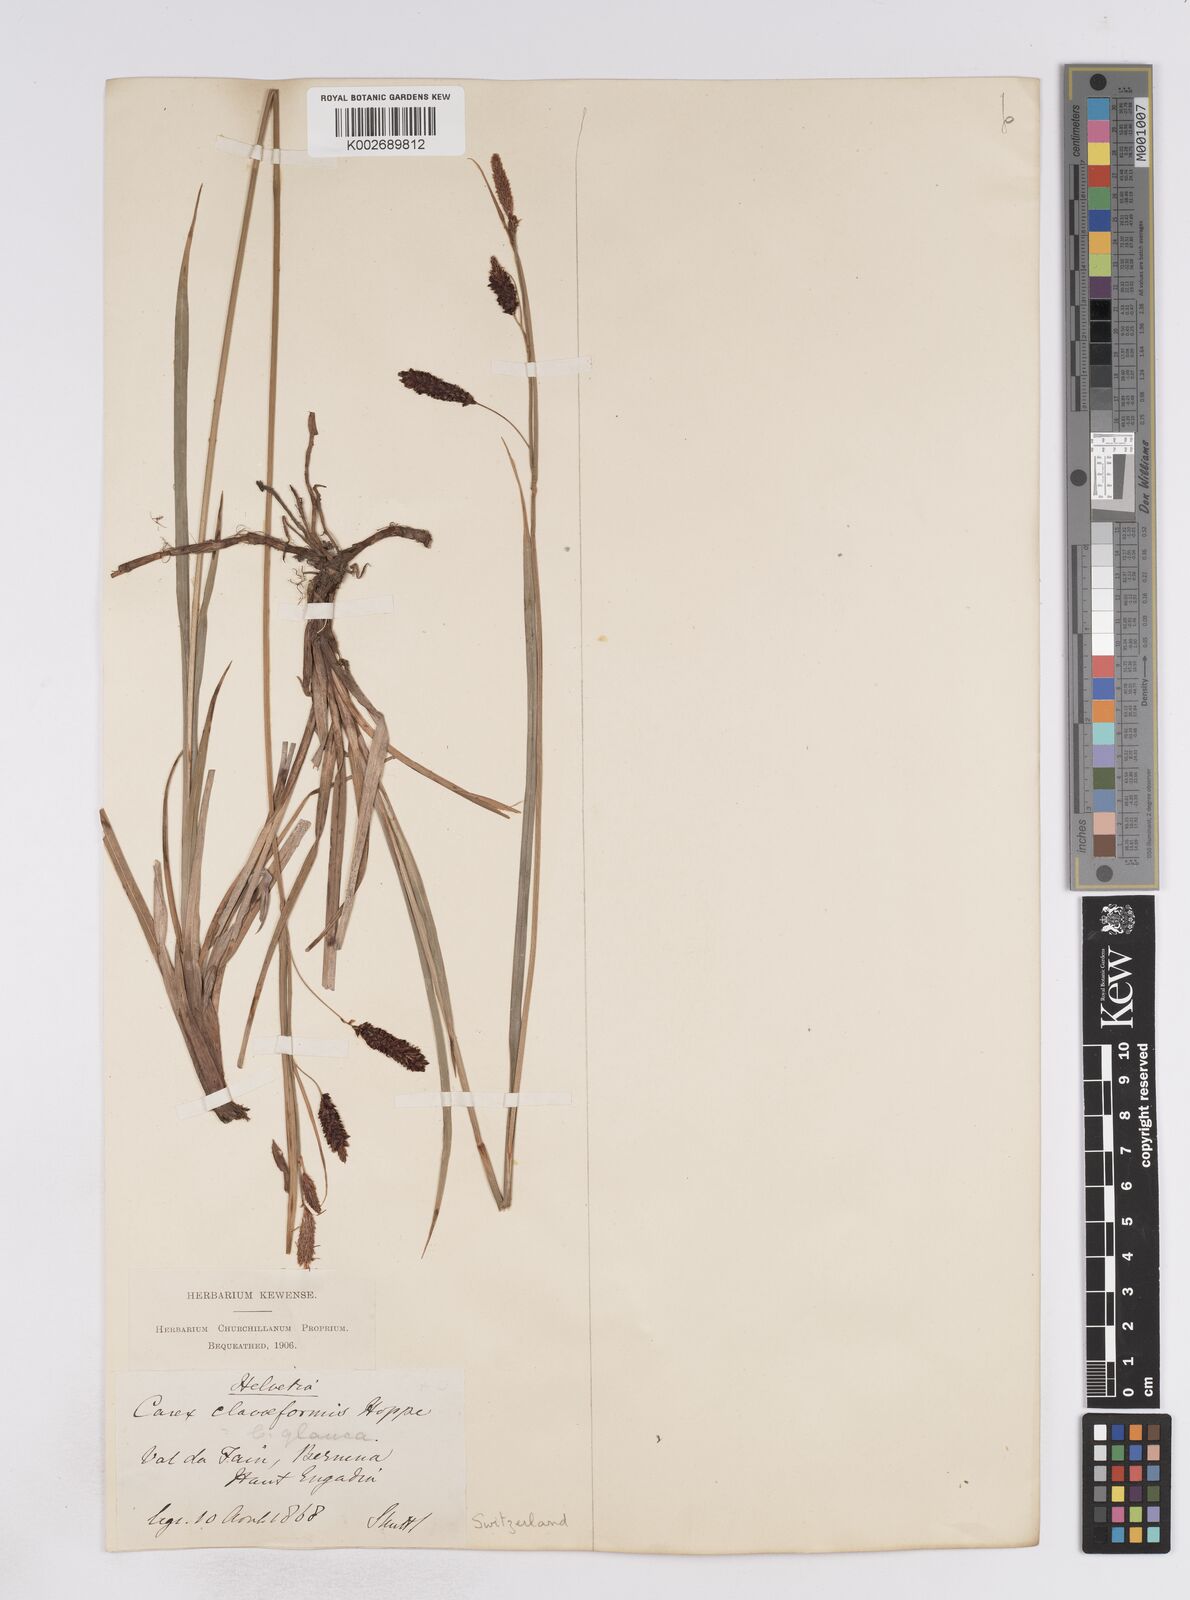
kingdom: Plantae
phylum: Tracheophyta
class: Liliopsida
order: Poales
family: Cyperaceae
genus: Carex
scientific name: Carex flacca
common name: Glaucous sedge
